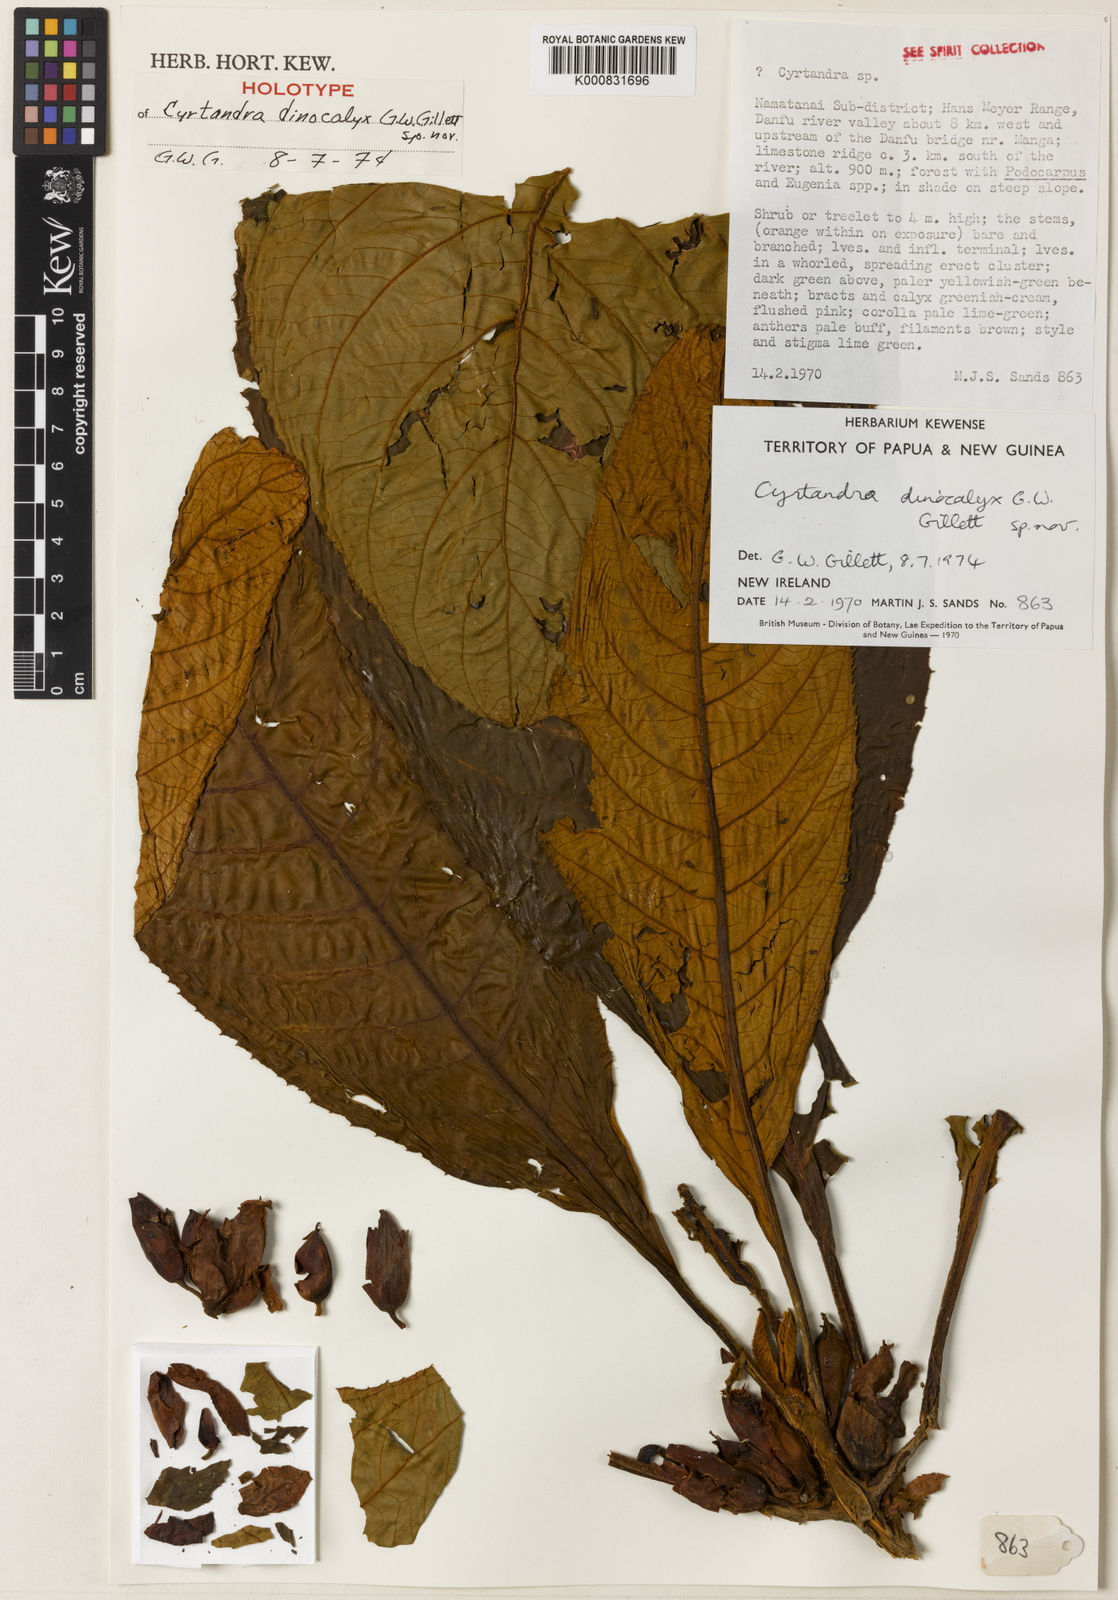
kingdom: Plantae
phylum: Tracheophyta
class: Magnoliopsida
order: Lamiales
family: Gesneriaceae
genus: Cyrtandra
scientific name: Cyrtandra dinocalyx
